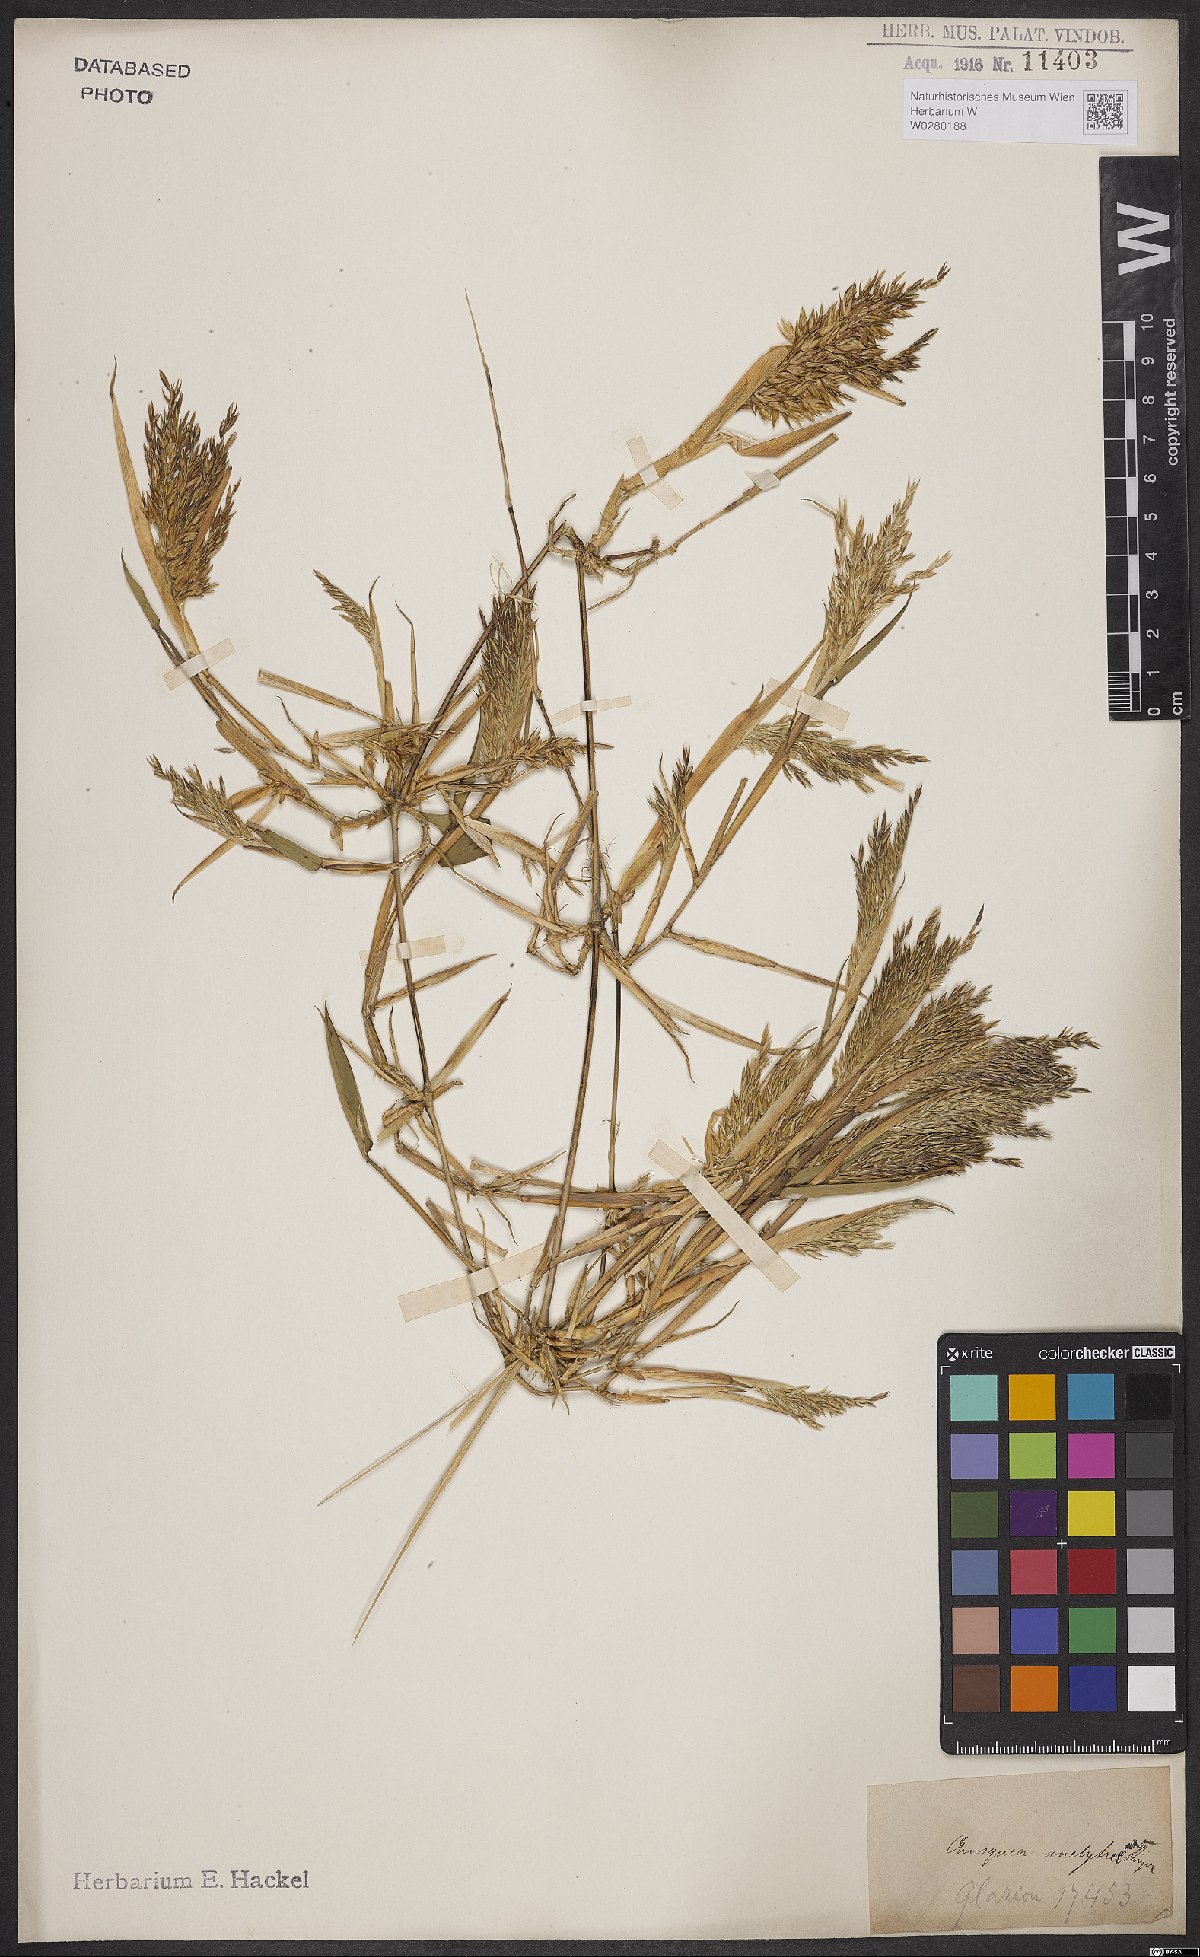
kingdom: Plantae
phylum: Tracheophyta
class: Liliopsida
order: Poales
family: Poaceae
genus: Chusquea
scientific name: Chusquea anelythra
